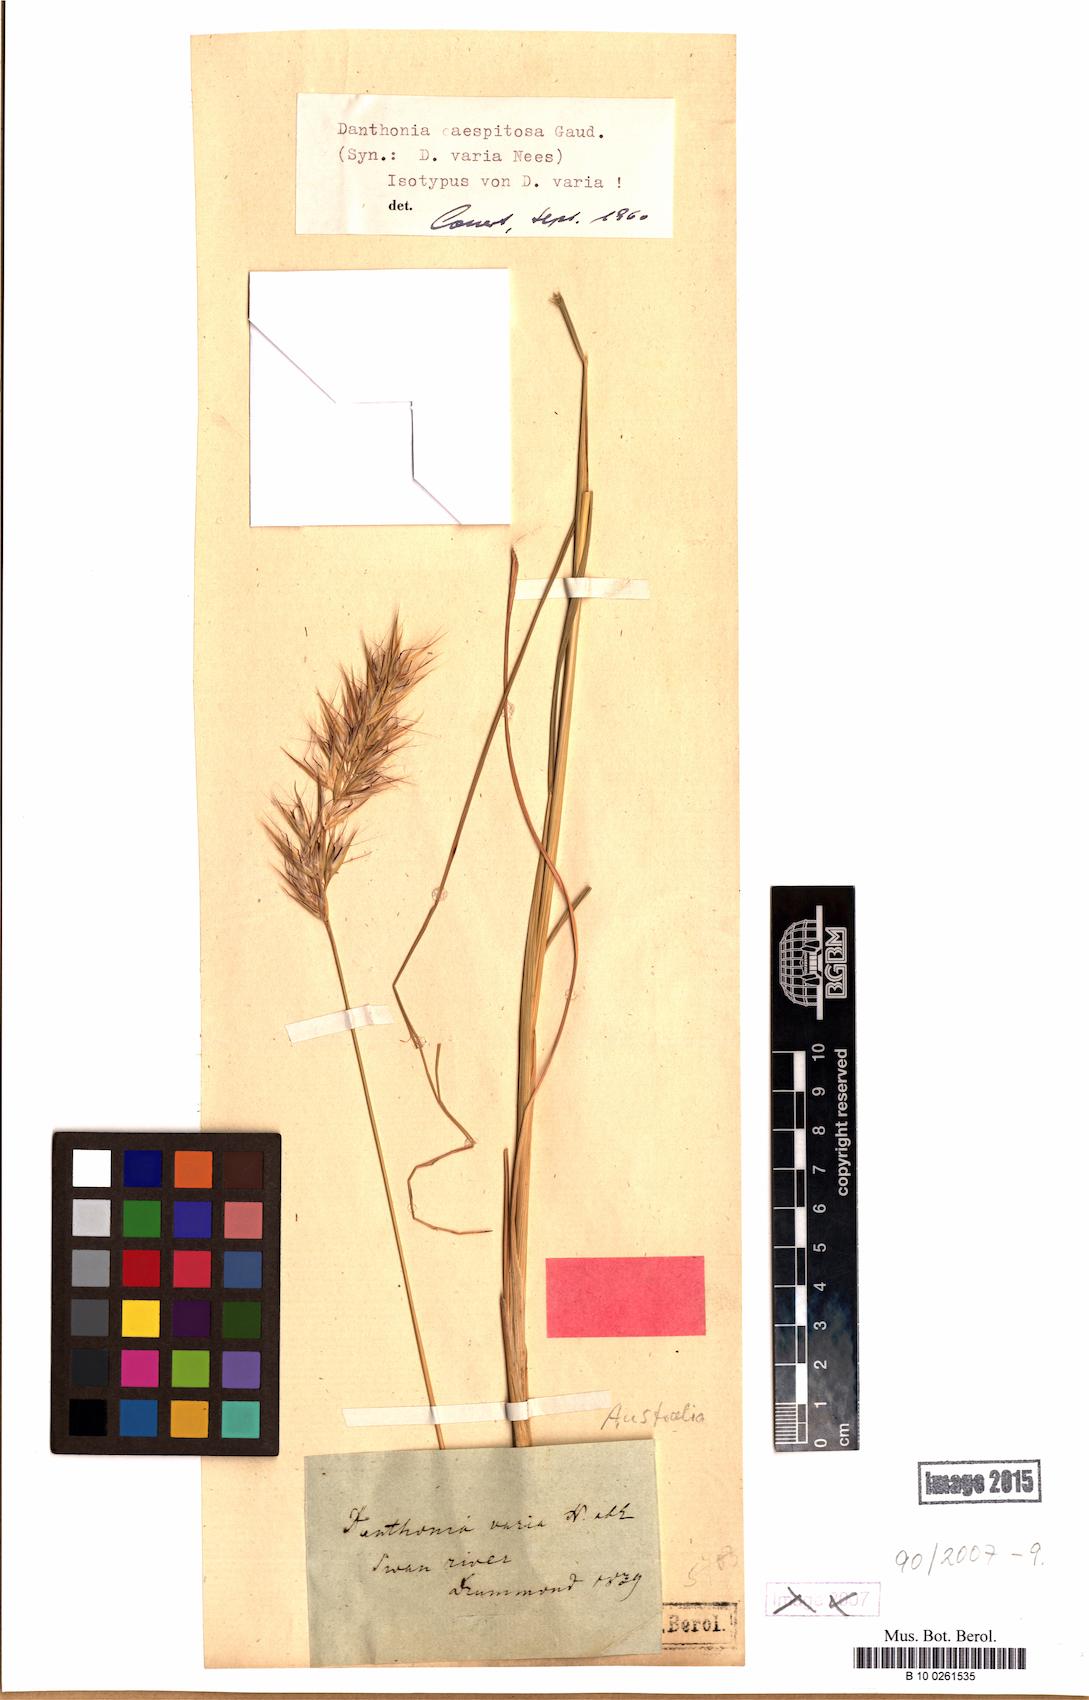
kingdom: Plantae
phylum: Tracheophyta
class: Liliopsida
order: Poales
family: Poaceae
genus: Rytidosperma
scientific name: Rytidosperma caespitosum
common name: Tufted wallaby grass
